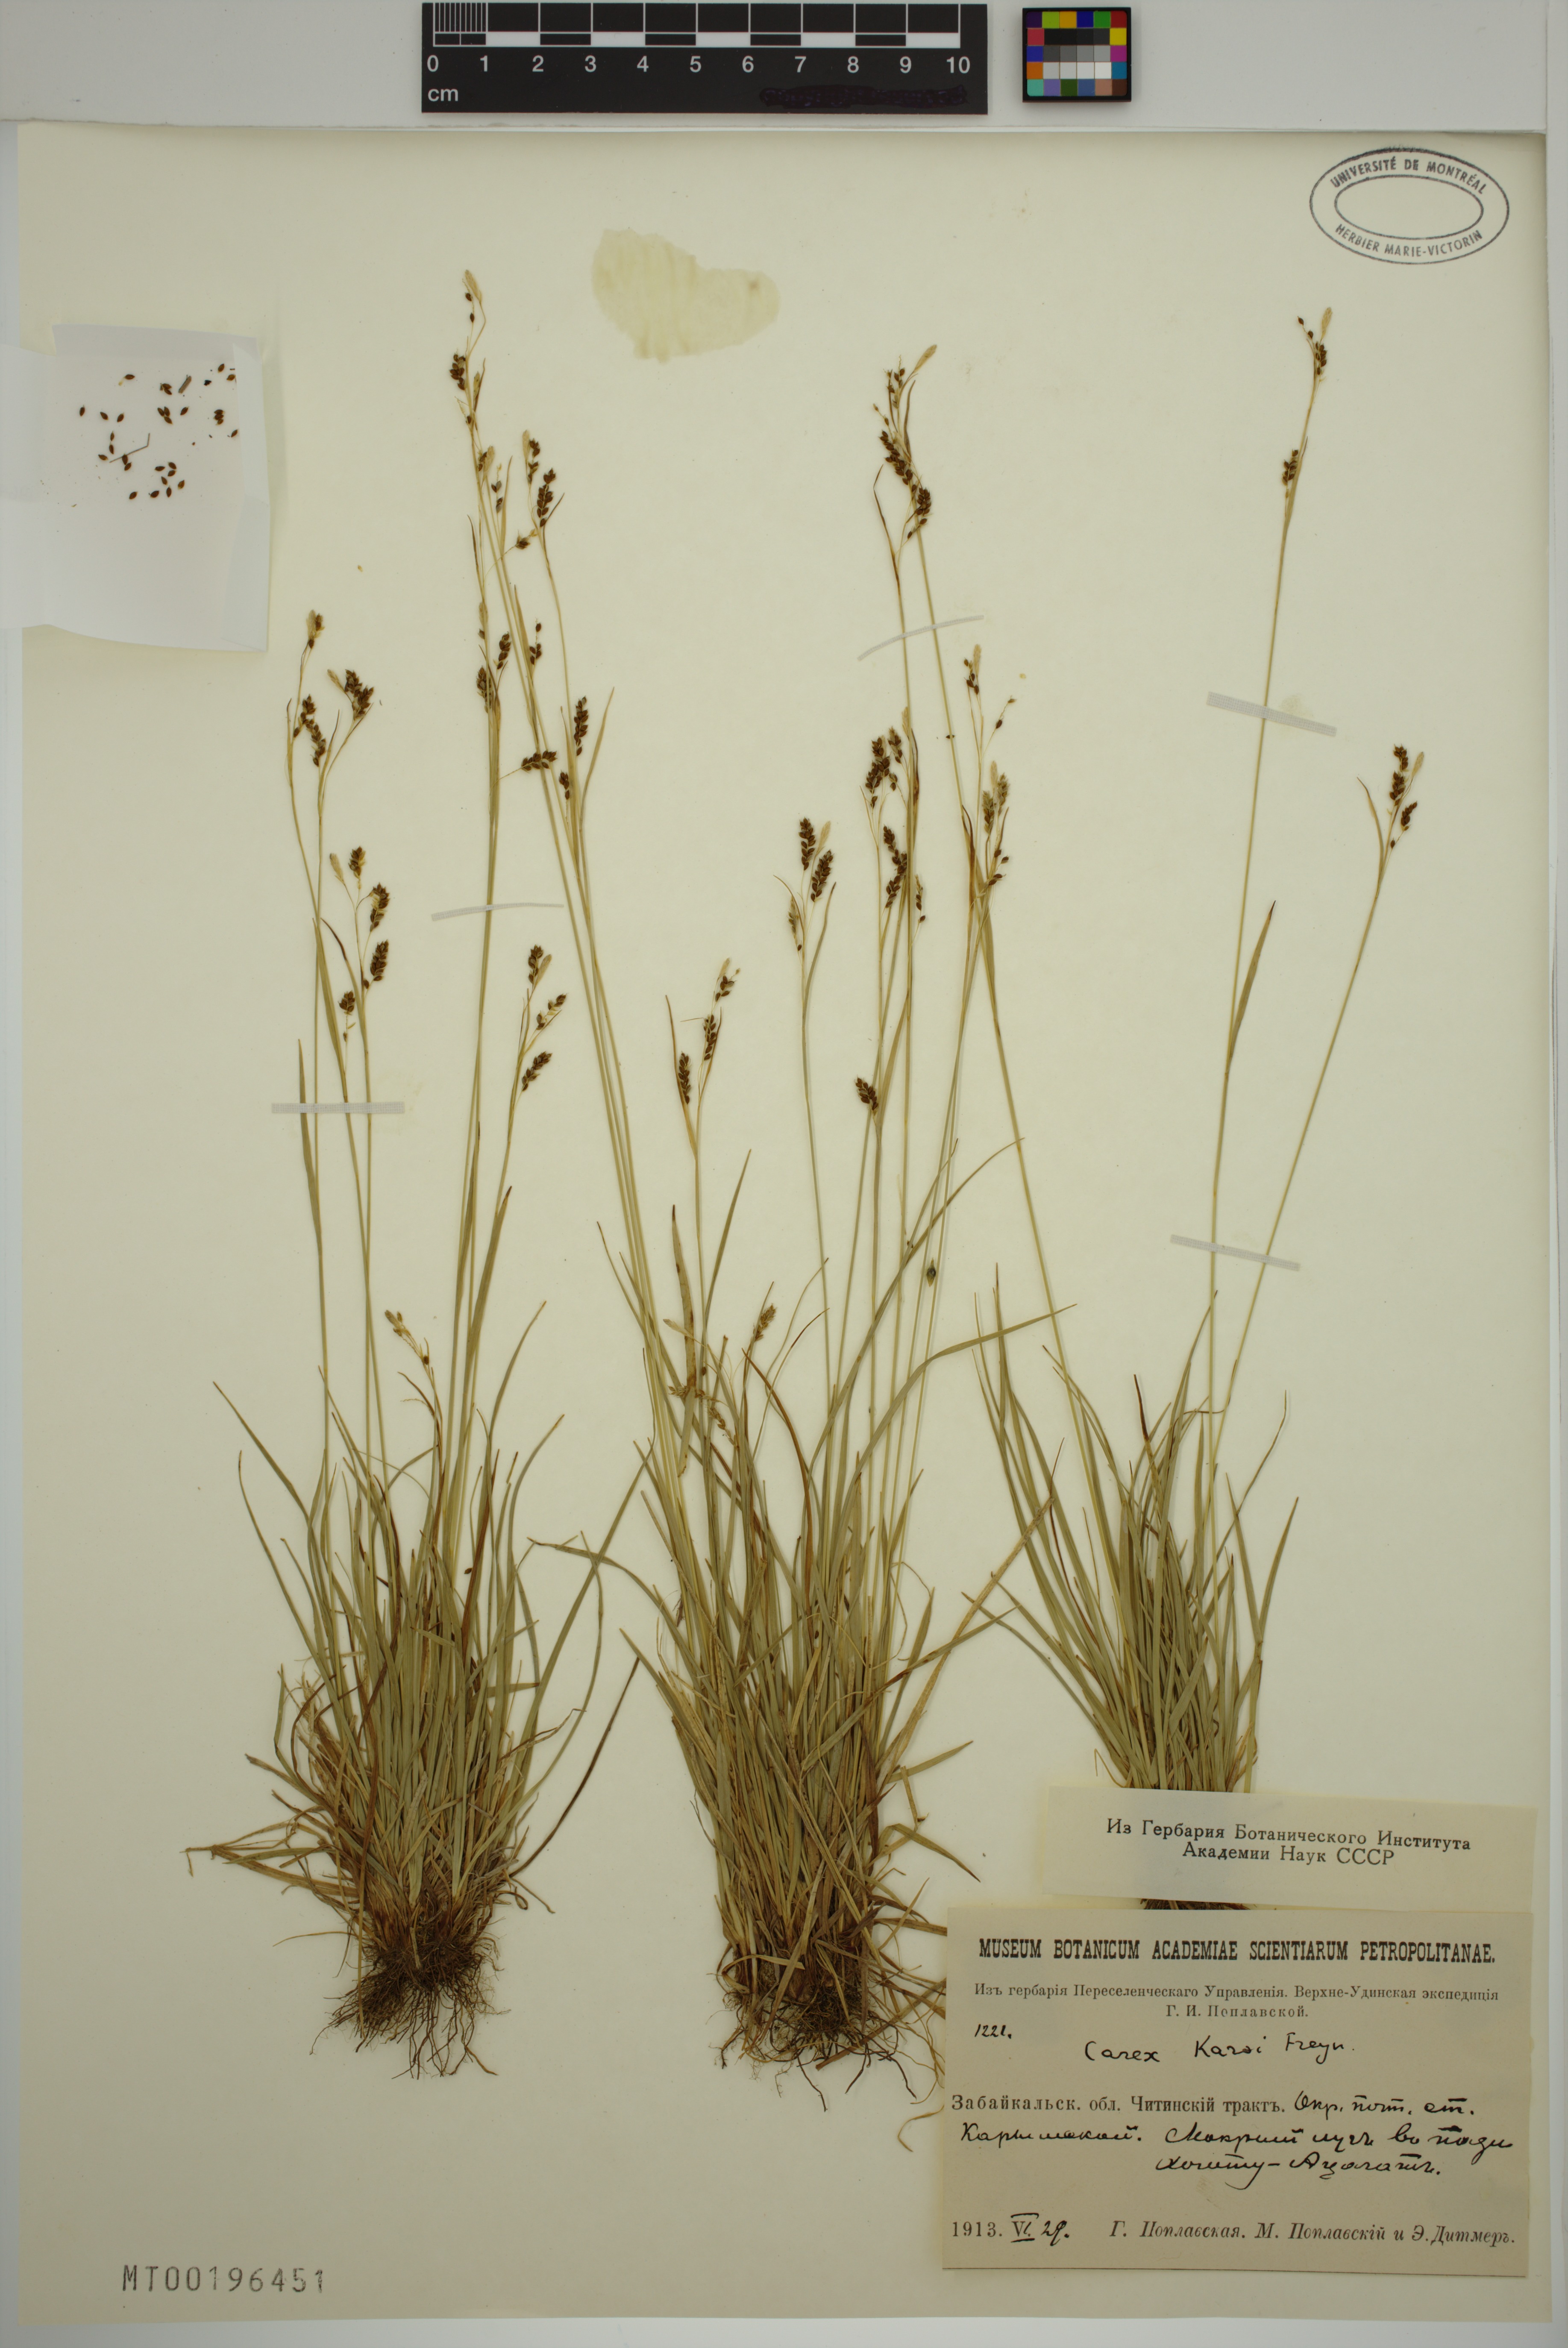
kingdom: Plantae
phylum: Tracheophyta
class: Liliopsida
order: Poales
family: Cyperaceae
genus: Carex
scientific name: Carex karoi
